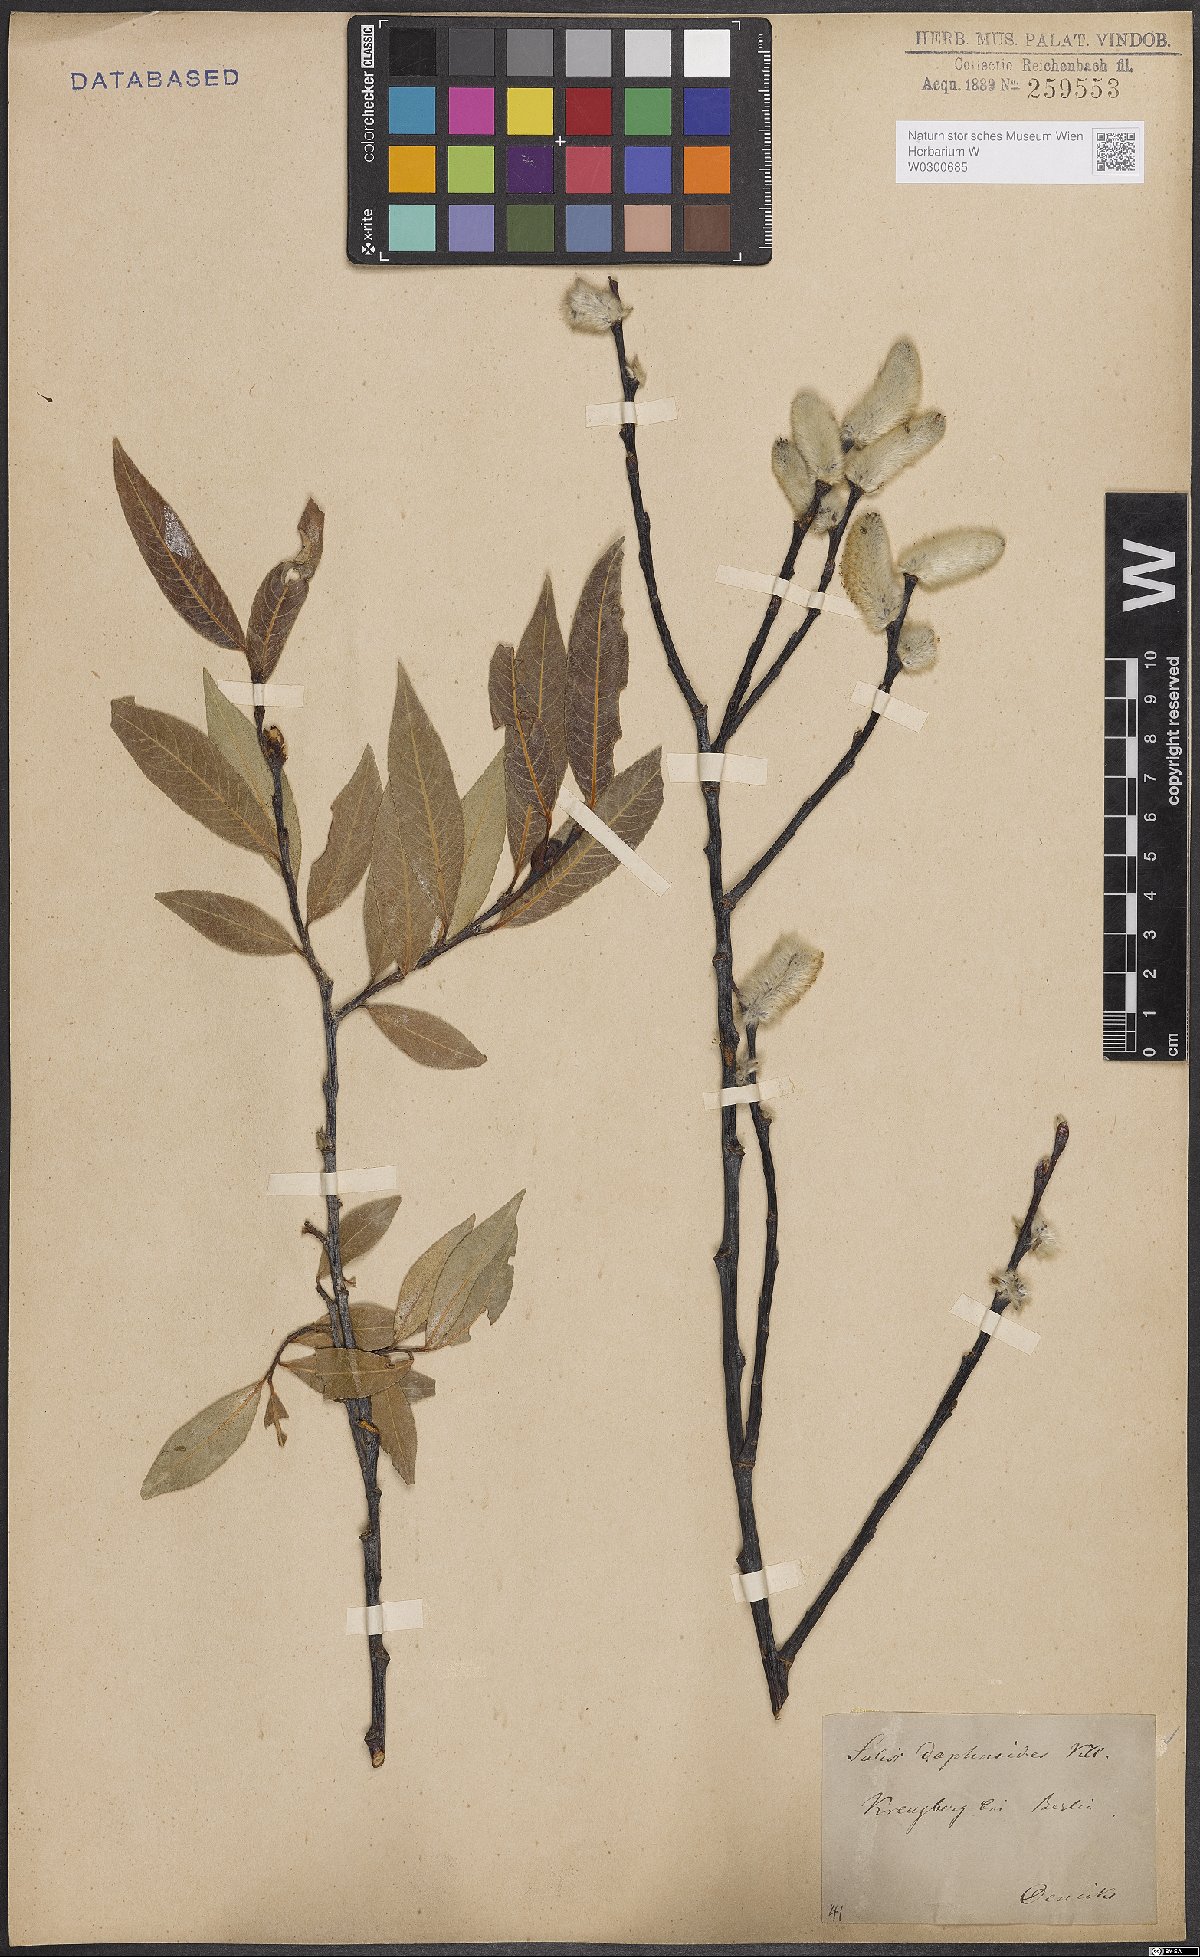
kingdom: Plantae
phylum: Tracheophyta
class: Magnoliopsida
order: Malpighiales
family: Salicaceae
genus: Salix
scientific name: Salix daphnoides
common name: European violet-willow
